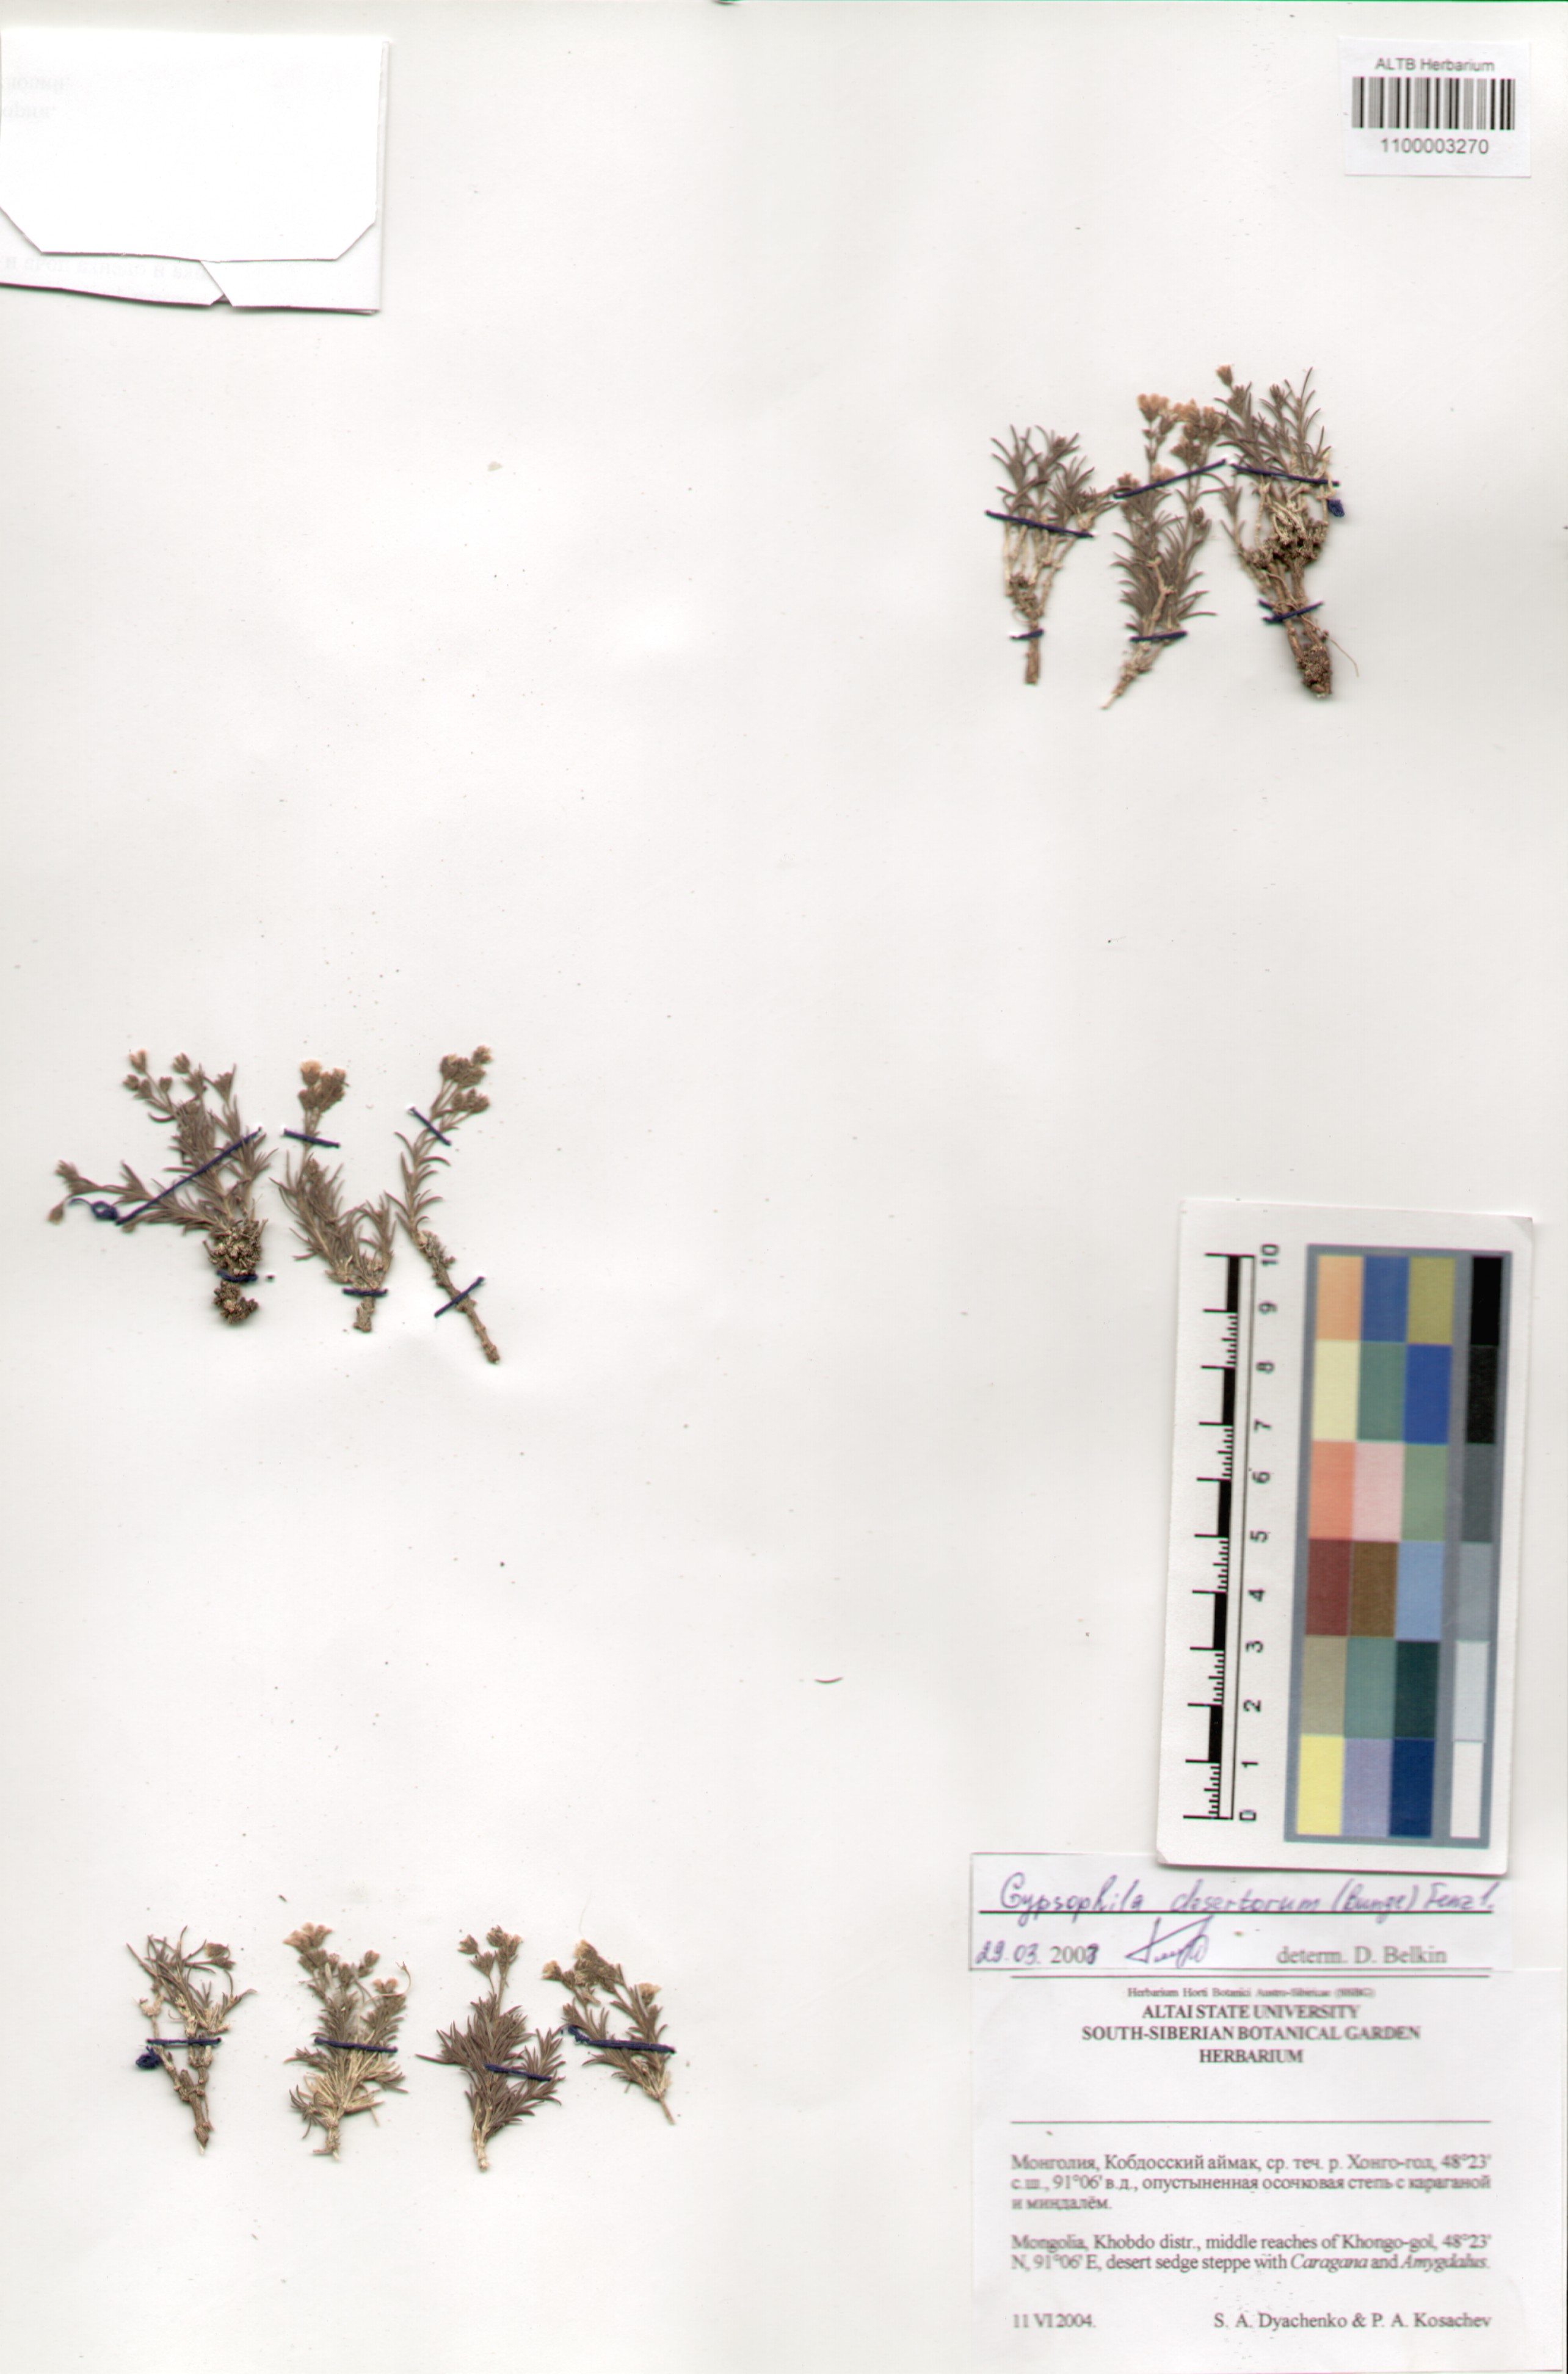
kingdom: Plantae
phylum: Tracheophyta
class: Magnoliopsida
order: Caryophyllales
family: Caryophyllaceae
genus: Heterochroa
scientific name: Heterochroa desertorum
